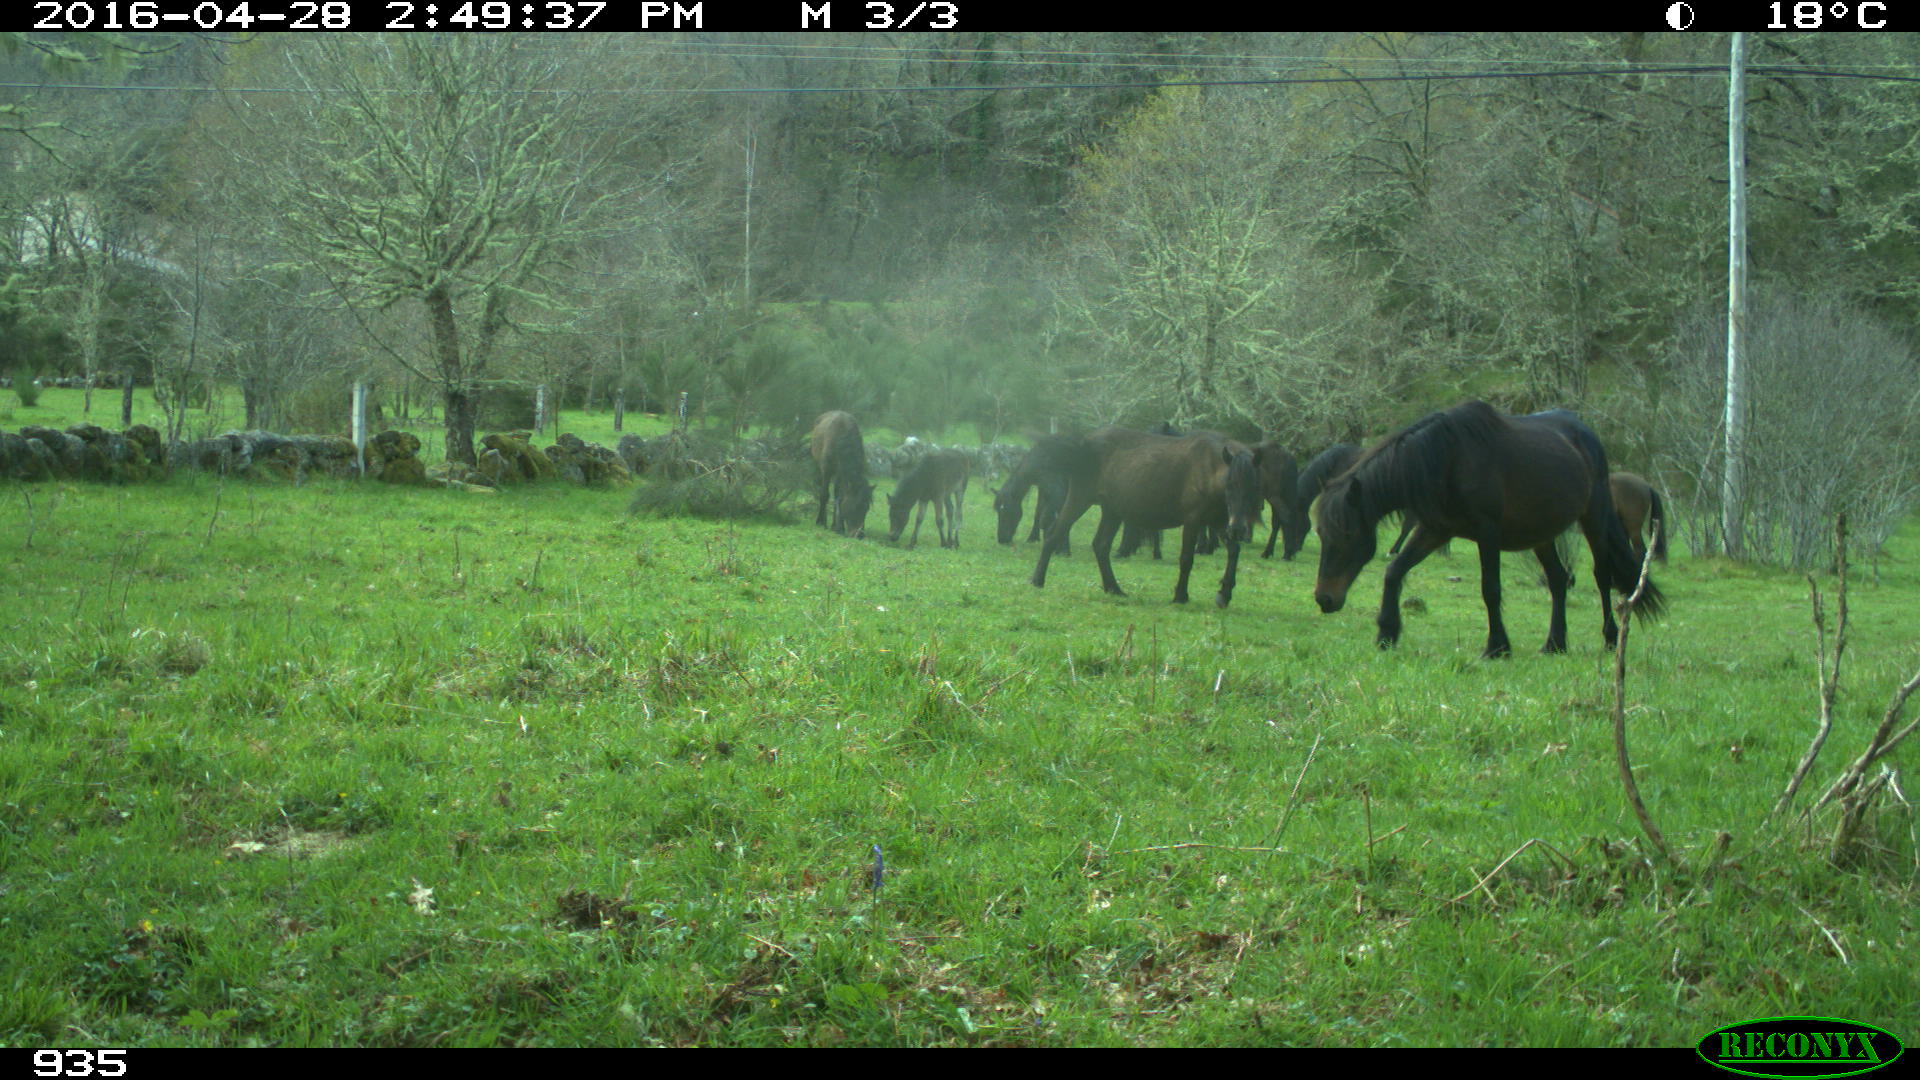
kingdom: Animalia
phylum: Chordata
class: Mammalia
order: Perissodactyla
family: Equidae
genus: Equus
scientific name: Equus caballus
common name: Horse
